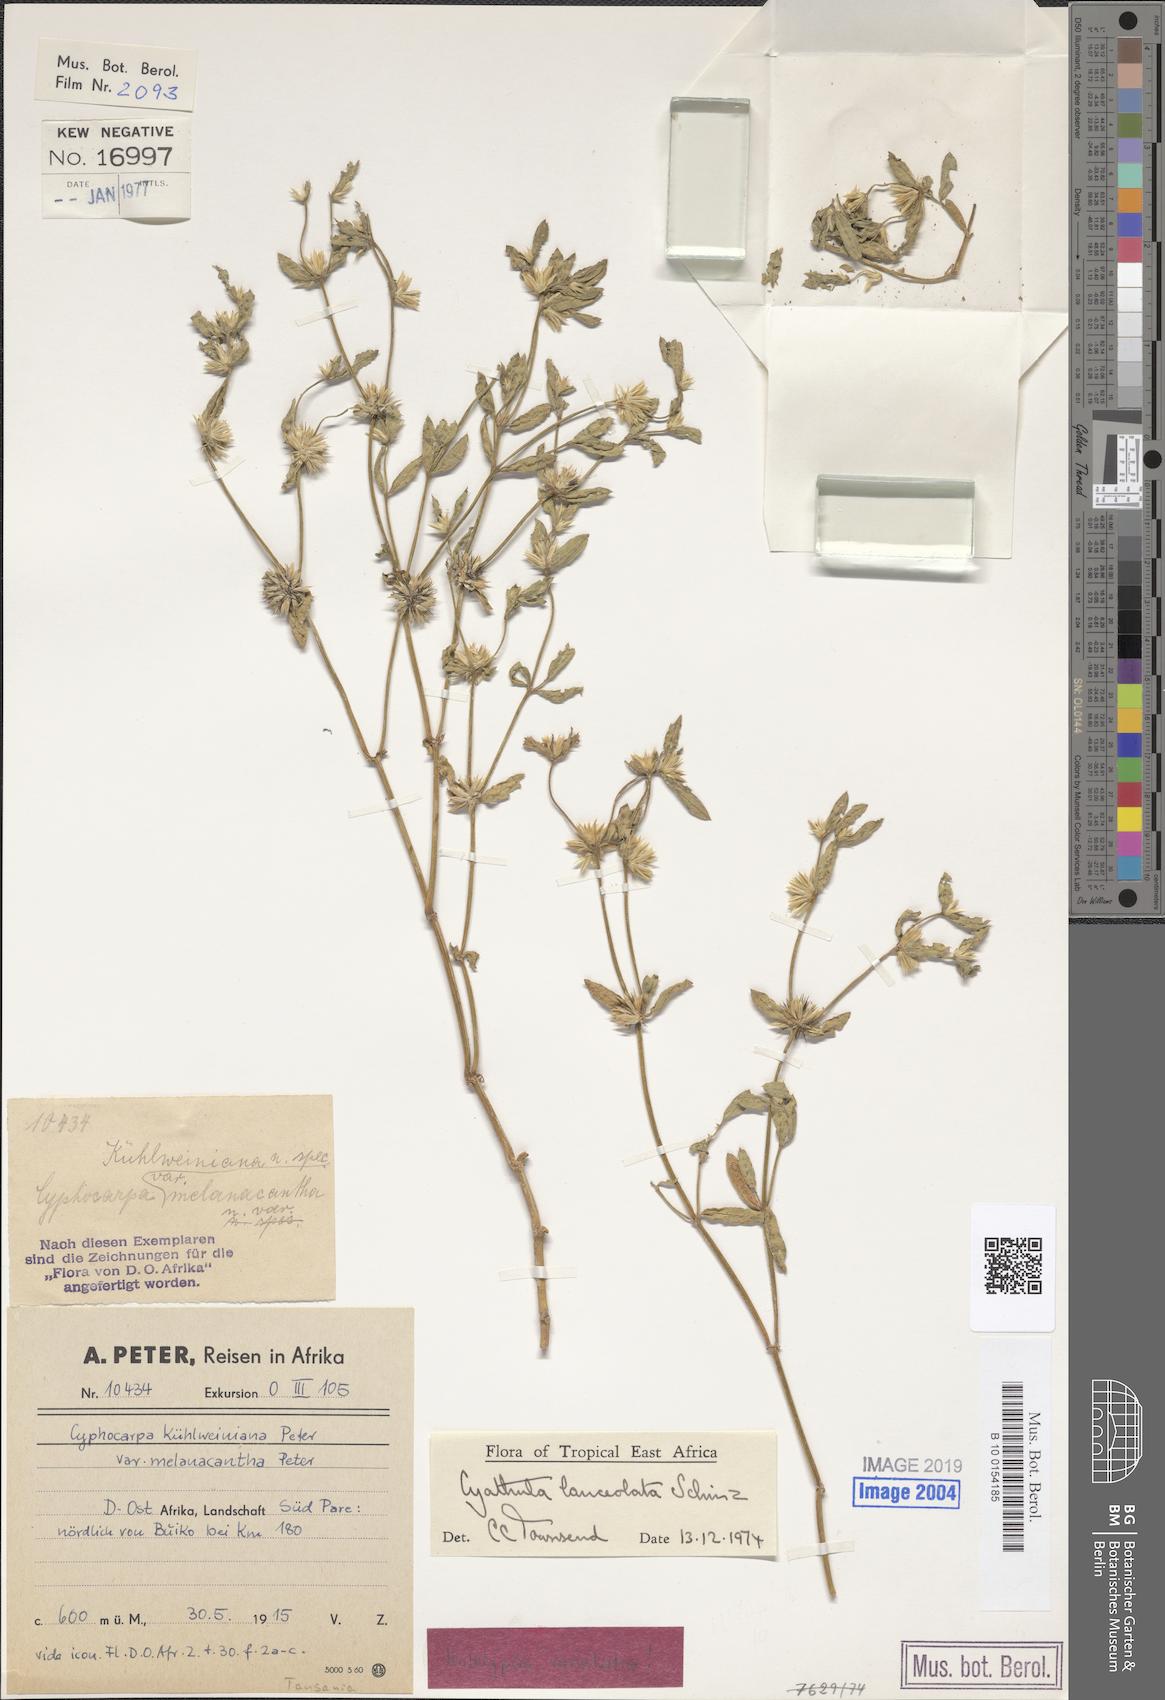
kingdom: Plantae
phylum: Tracheophyta
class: Magnoliopsida
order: Caryophyllales
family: Amaranthaceae
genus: Cyathula
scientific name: Cyathula lanceolata
